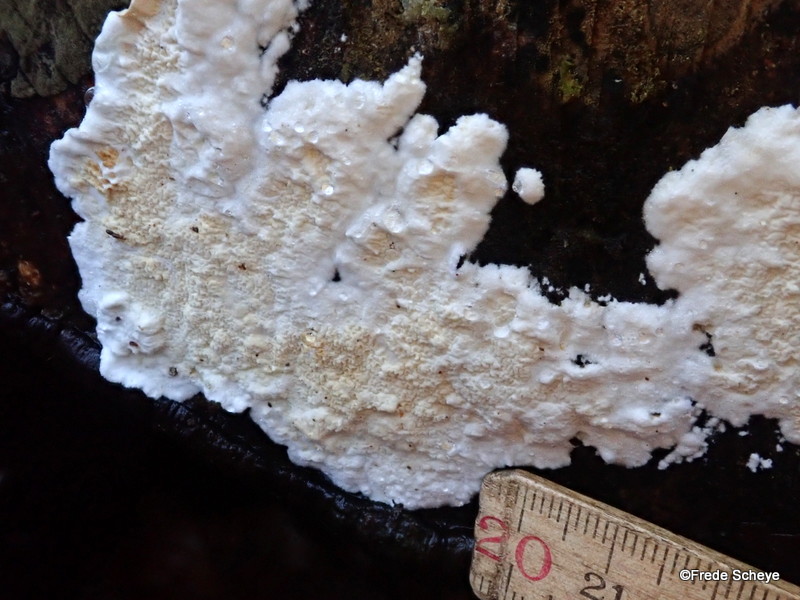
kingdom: Fungi
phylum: Basidiomycota
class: Agaricomycetes
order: Polyporales
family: Irpicaceae
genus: Byssomerulius
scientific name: Byssomerulius corium
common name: læder-åresvamp
